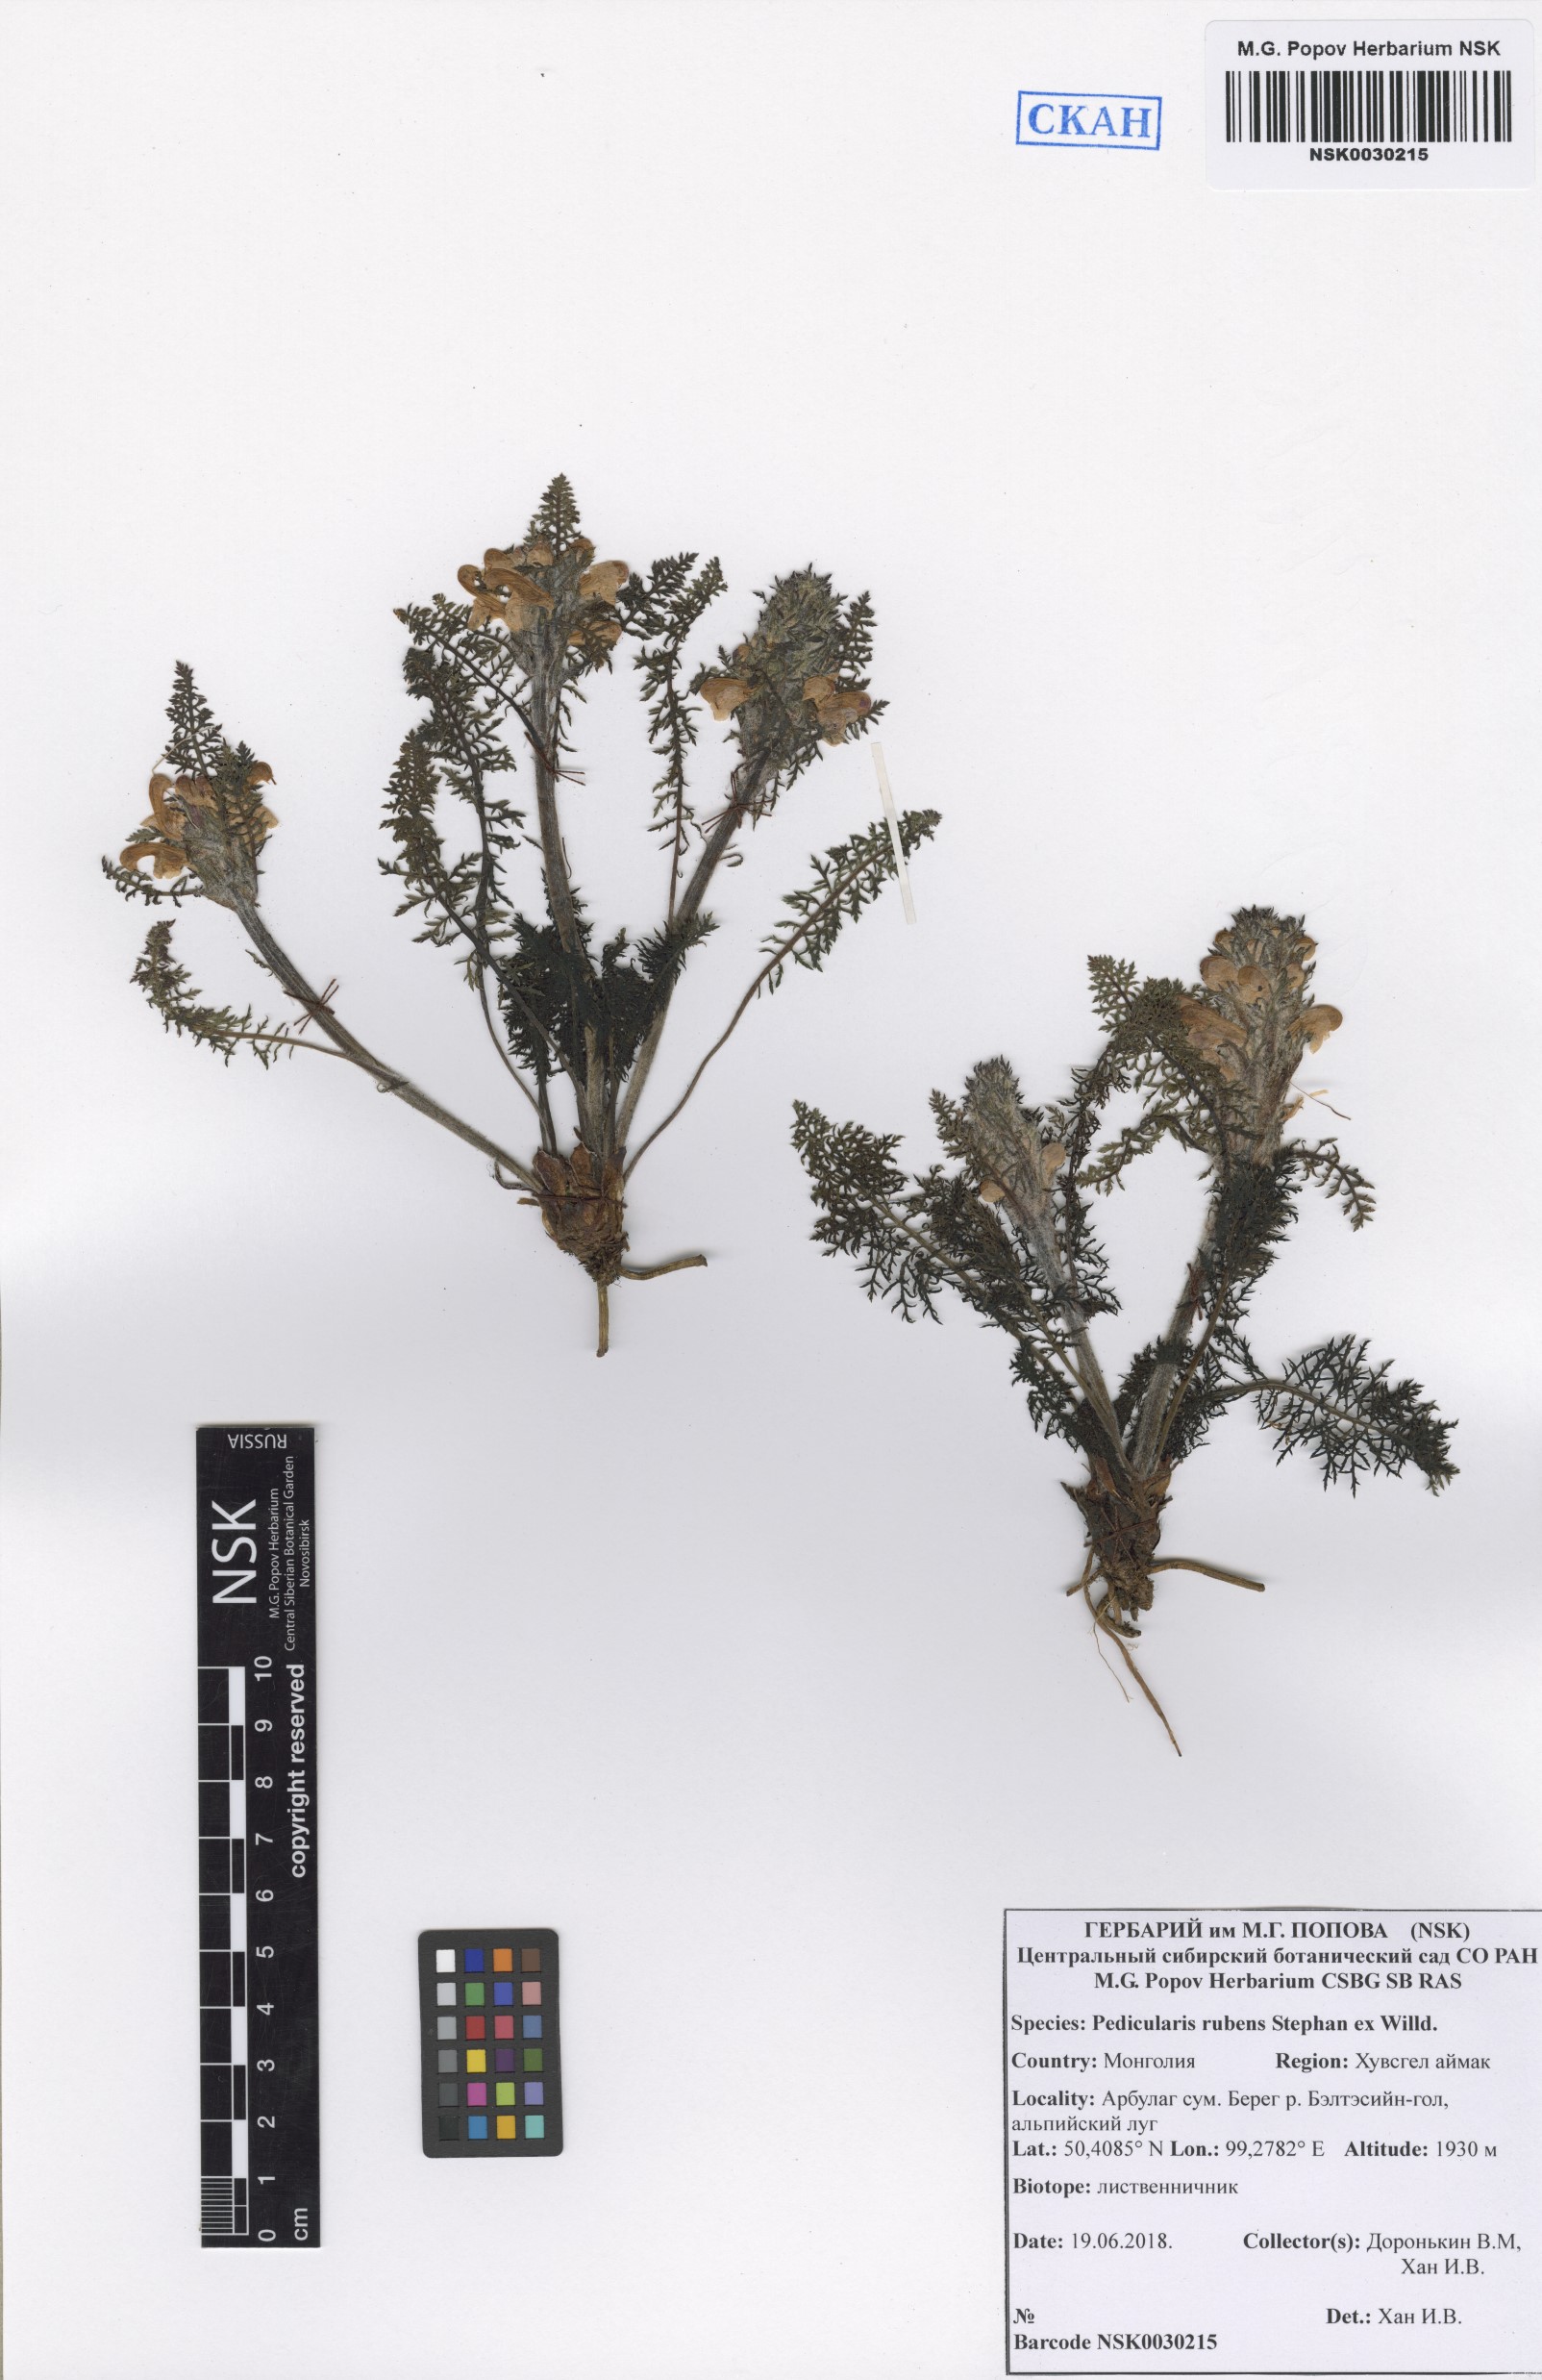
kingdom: Plantae
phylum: Tracheophyta
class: Magnoliopsida
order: Lamiales
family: Orobanchaceae
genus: Pedicularis
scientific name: Pedicularis rubens
